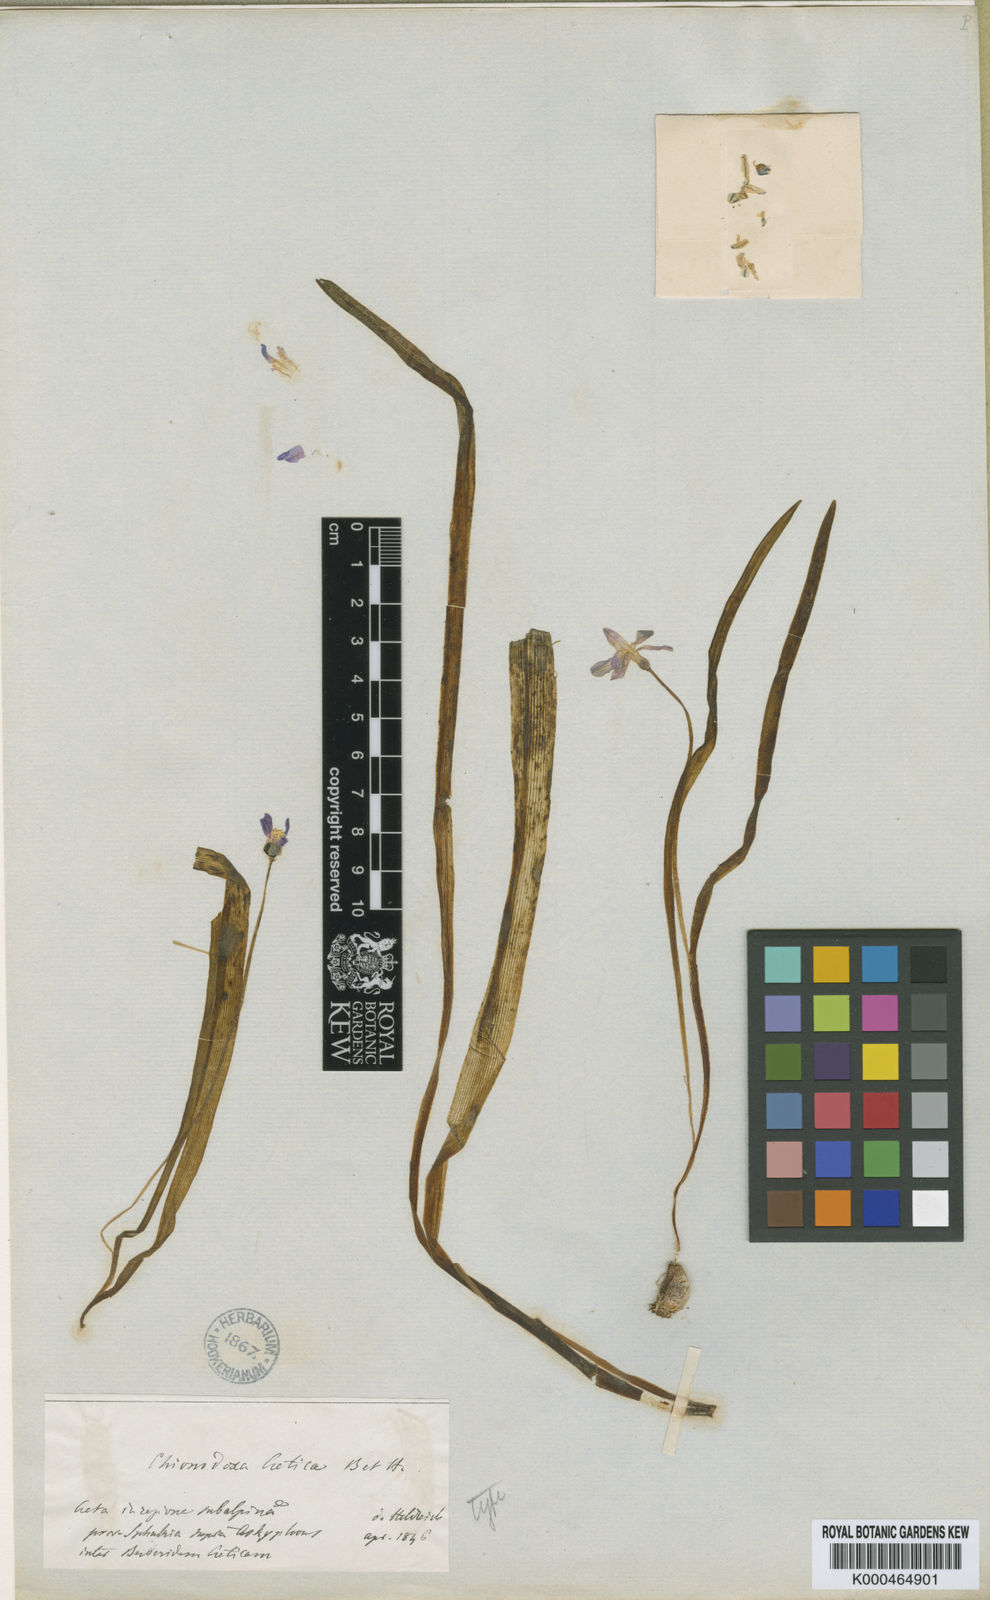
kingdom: Plantae
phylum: Tracheophyta
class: Liliopsida
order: Asparagales
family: Asparagaceae
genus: Scilla
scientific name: Scilla cretica
